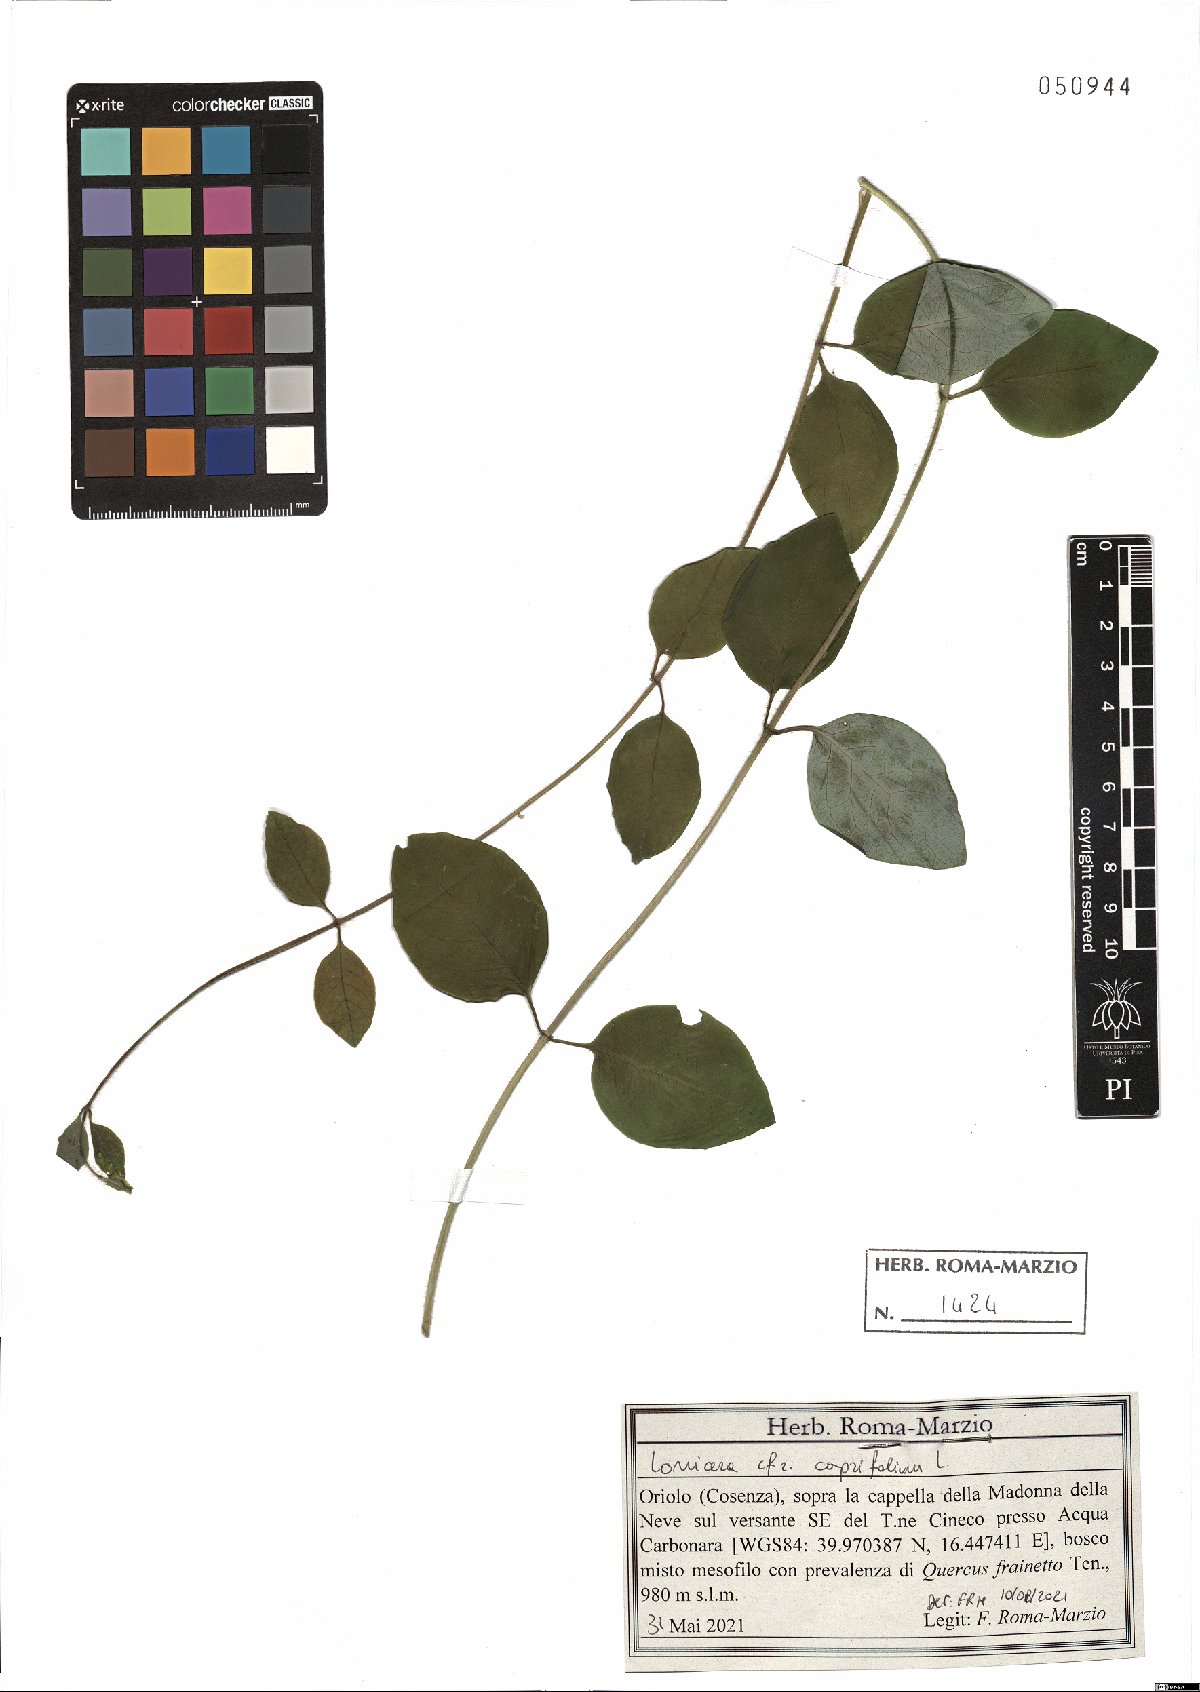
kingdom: Plantae
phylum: Tracheophyta
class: Magnoliopsida
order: Dipsacales
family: Caprifoliaceae
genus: Lonicera
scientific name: Lonicera caprifolium
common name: Perfoliate honeysuckle
